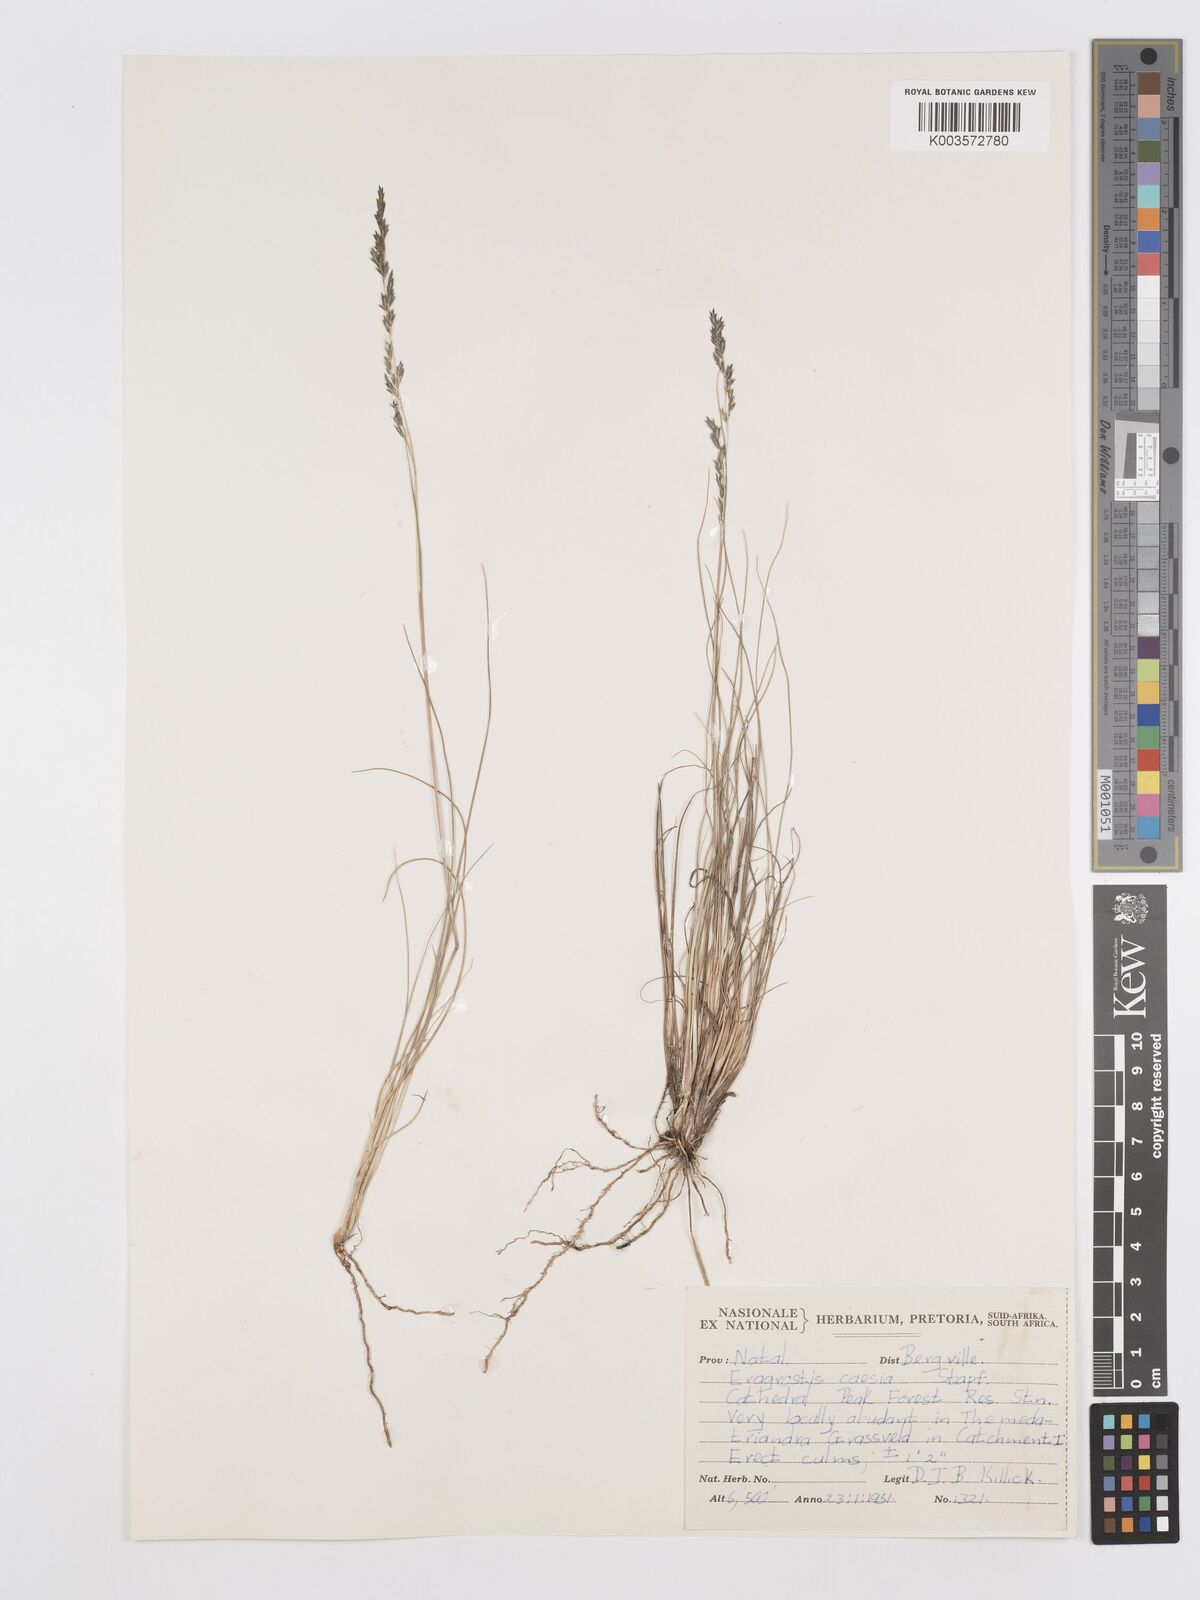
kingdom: Plantae
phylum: Tracheophyta
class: Liliopsida
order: Poales
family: Poaceae
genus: Eragrostis
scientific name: Eragrostis caesia
